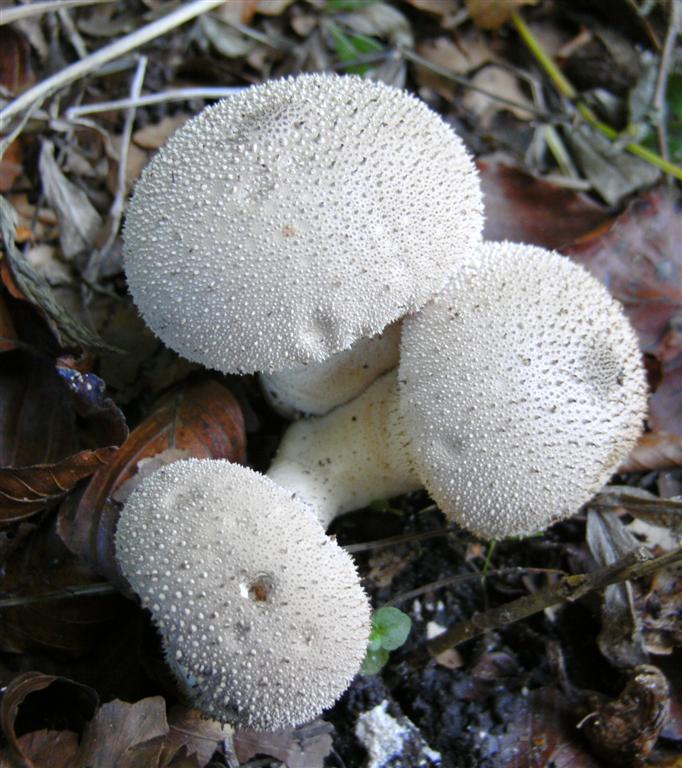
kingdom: Fungi
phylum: Basidiomycota
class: Agaricomycetes
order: Agaricales
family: Lycoperdaceae
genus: Lycoperdon
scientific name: Lycoperdon perlatum
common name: krystal-støvbold
